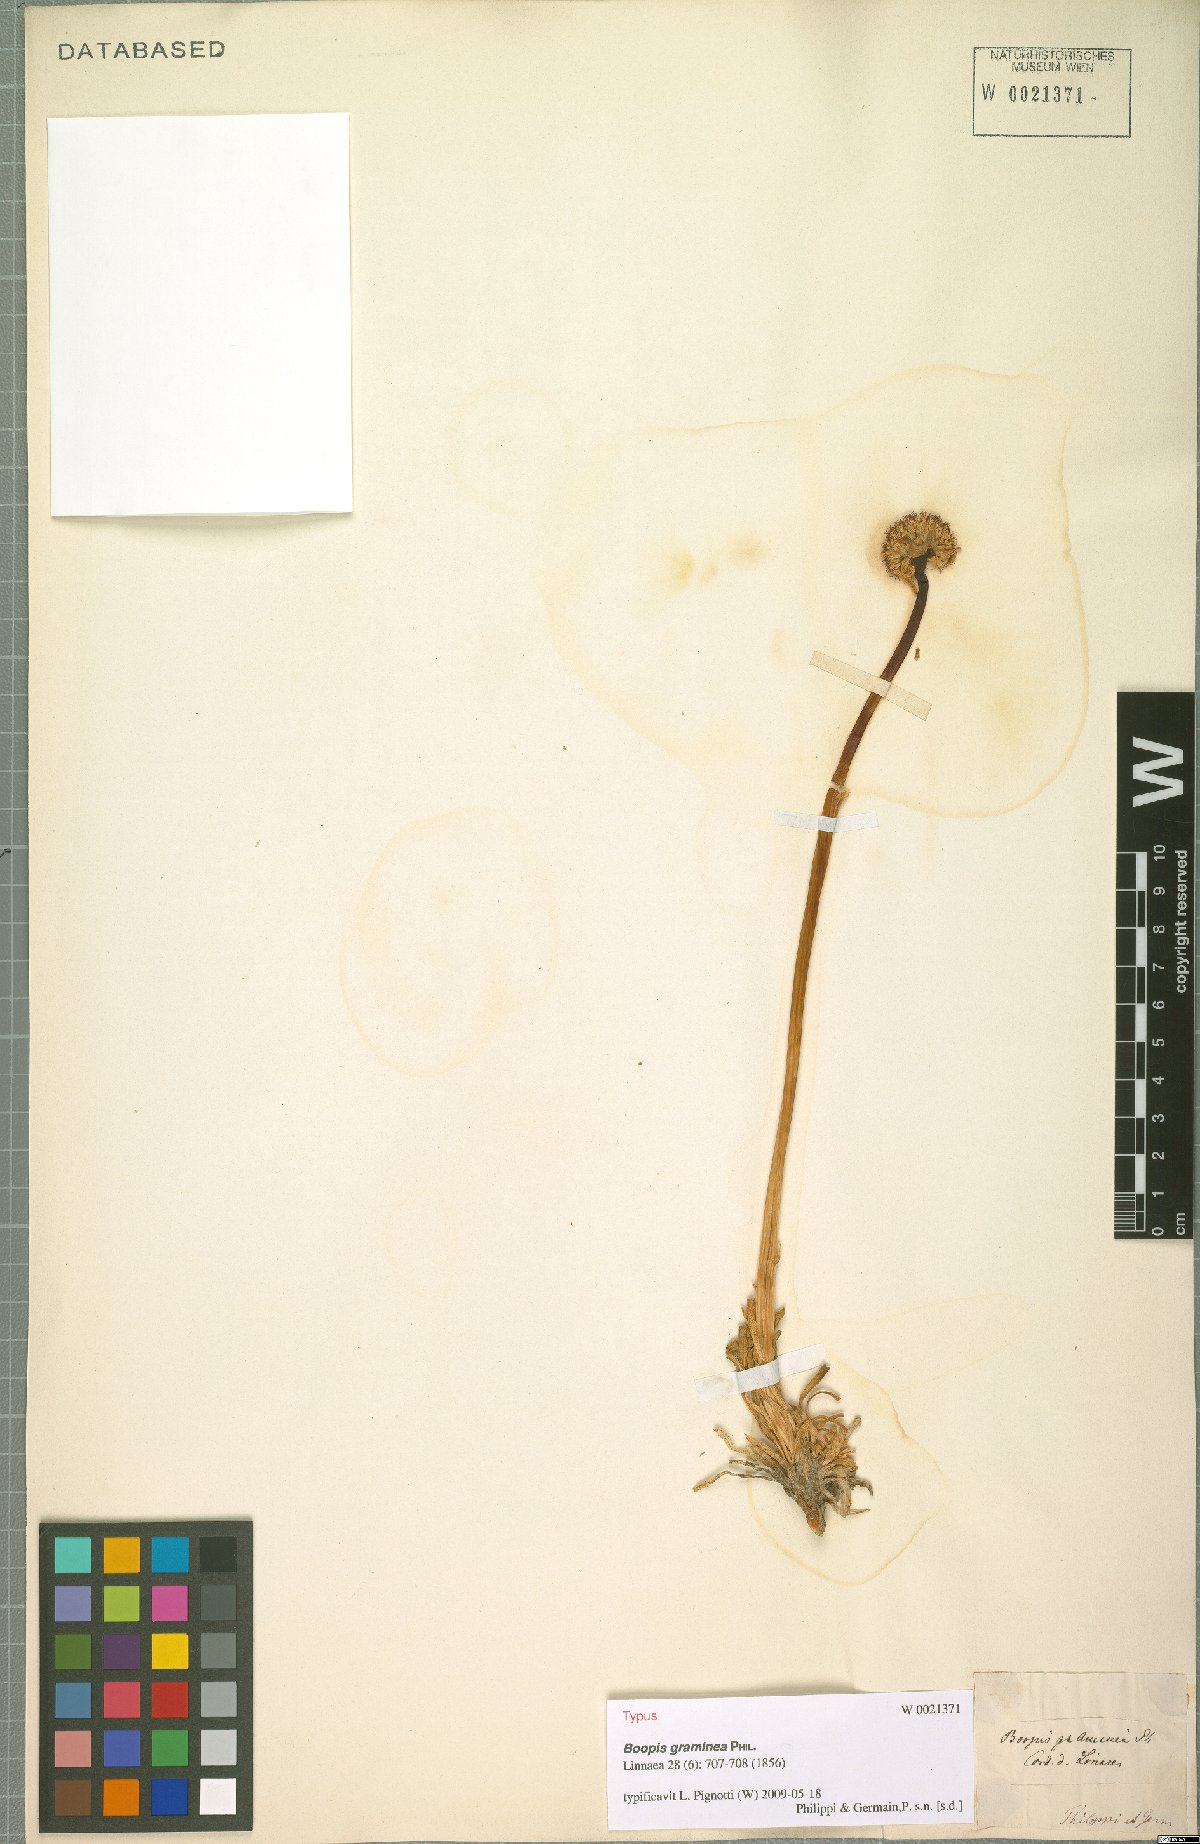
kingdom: Plantae
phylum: Tracheophyta
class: Magnoliopsida
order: Asterales
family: Calyceraceae
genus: Gamocarpha
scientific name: Gamocarpha graminea
